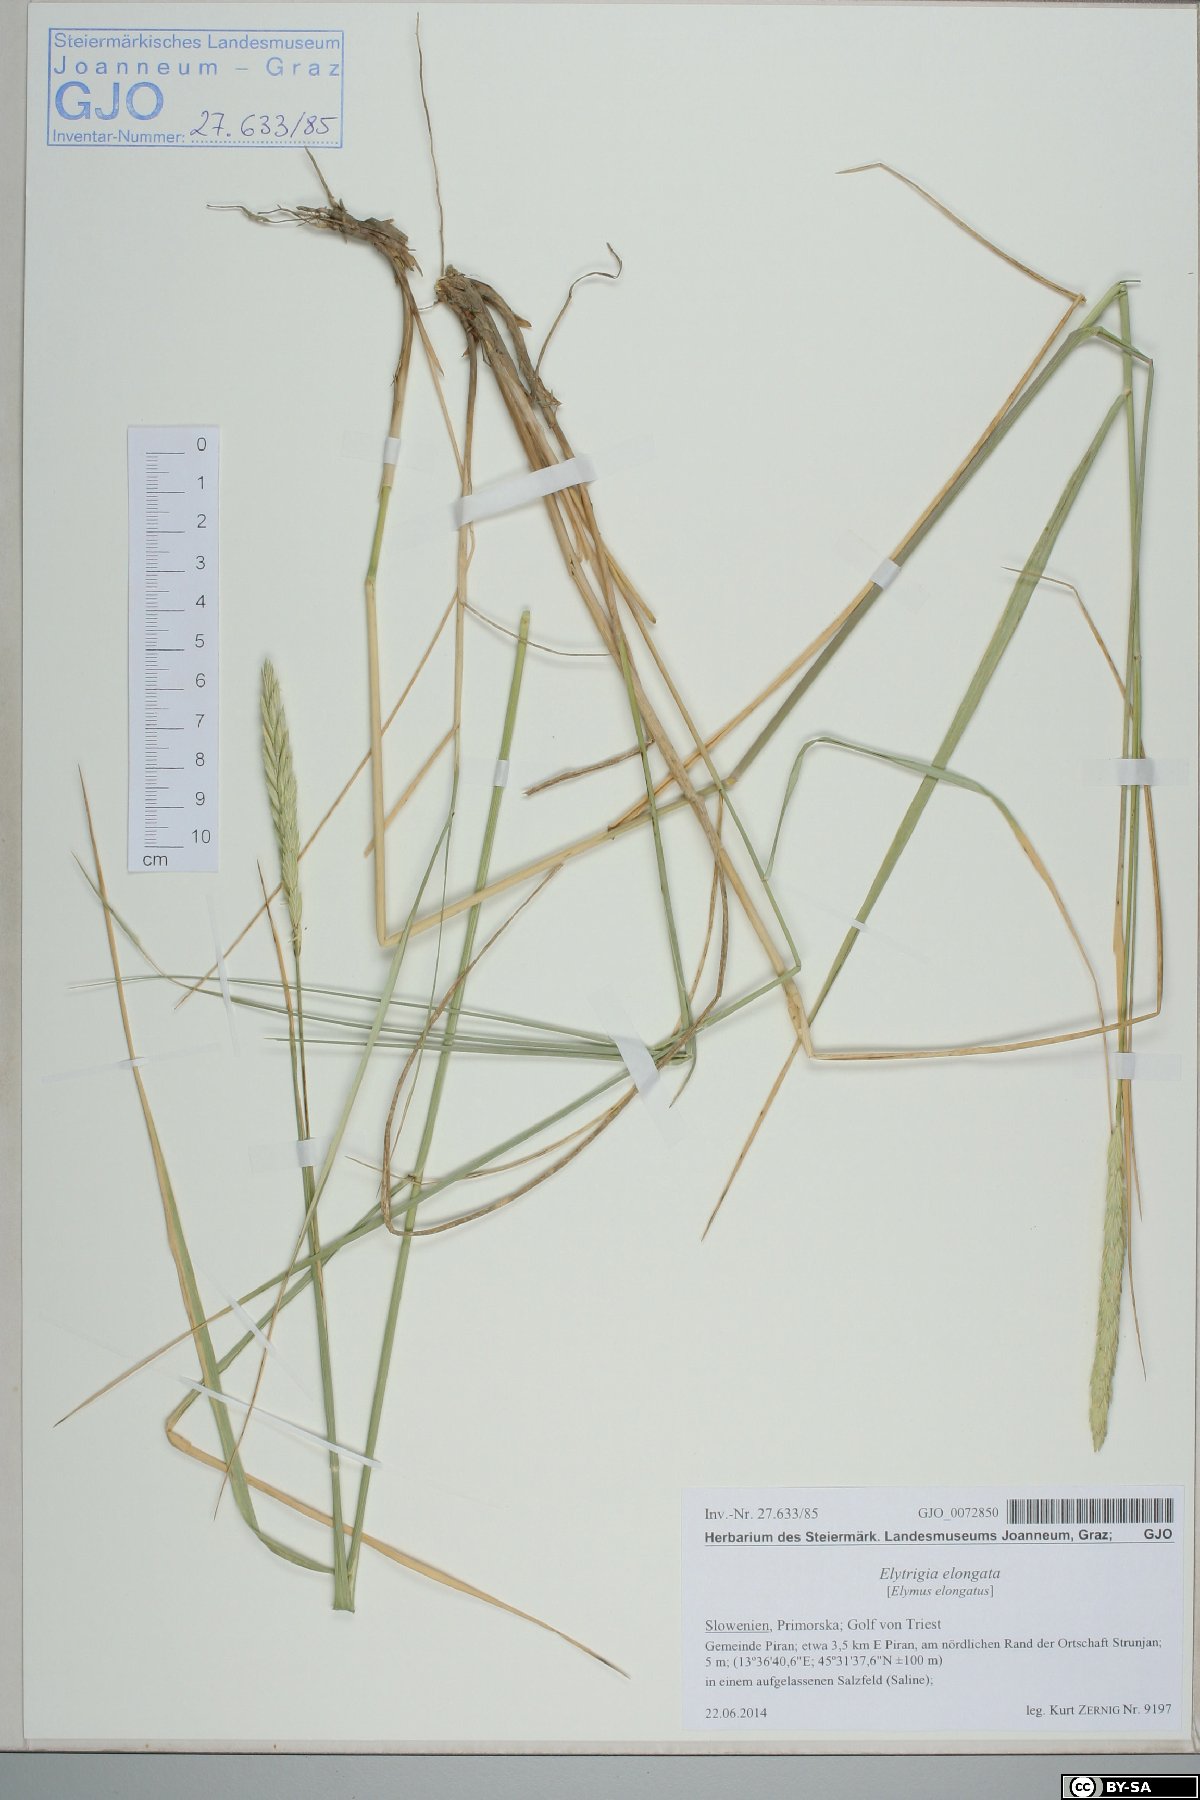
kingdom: Plantae
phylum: Tracheophyta
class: Liliopsida
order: Poales
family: Poaceae
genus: Thinopyrum
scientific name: Thinopyrum elongatum
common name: Tall wheatgrass
